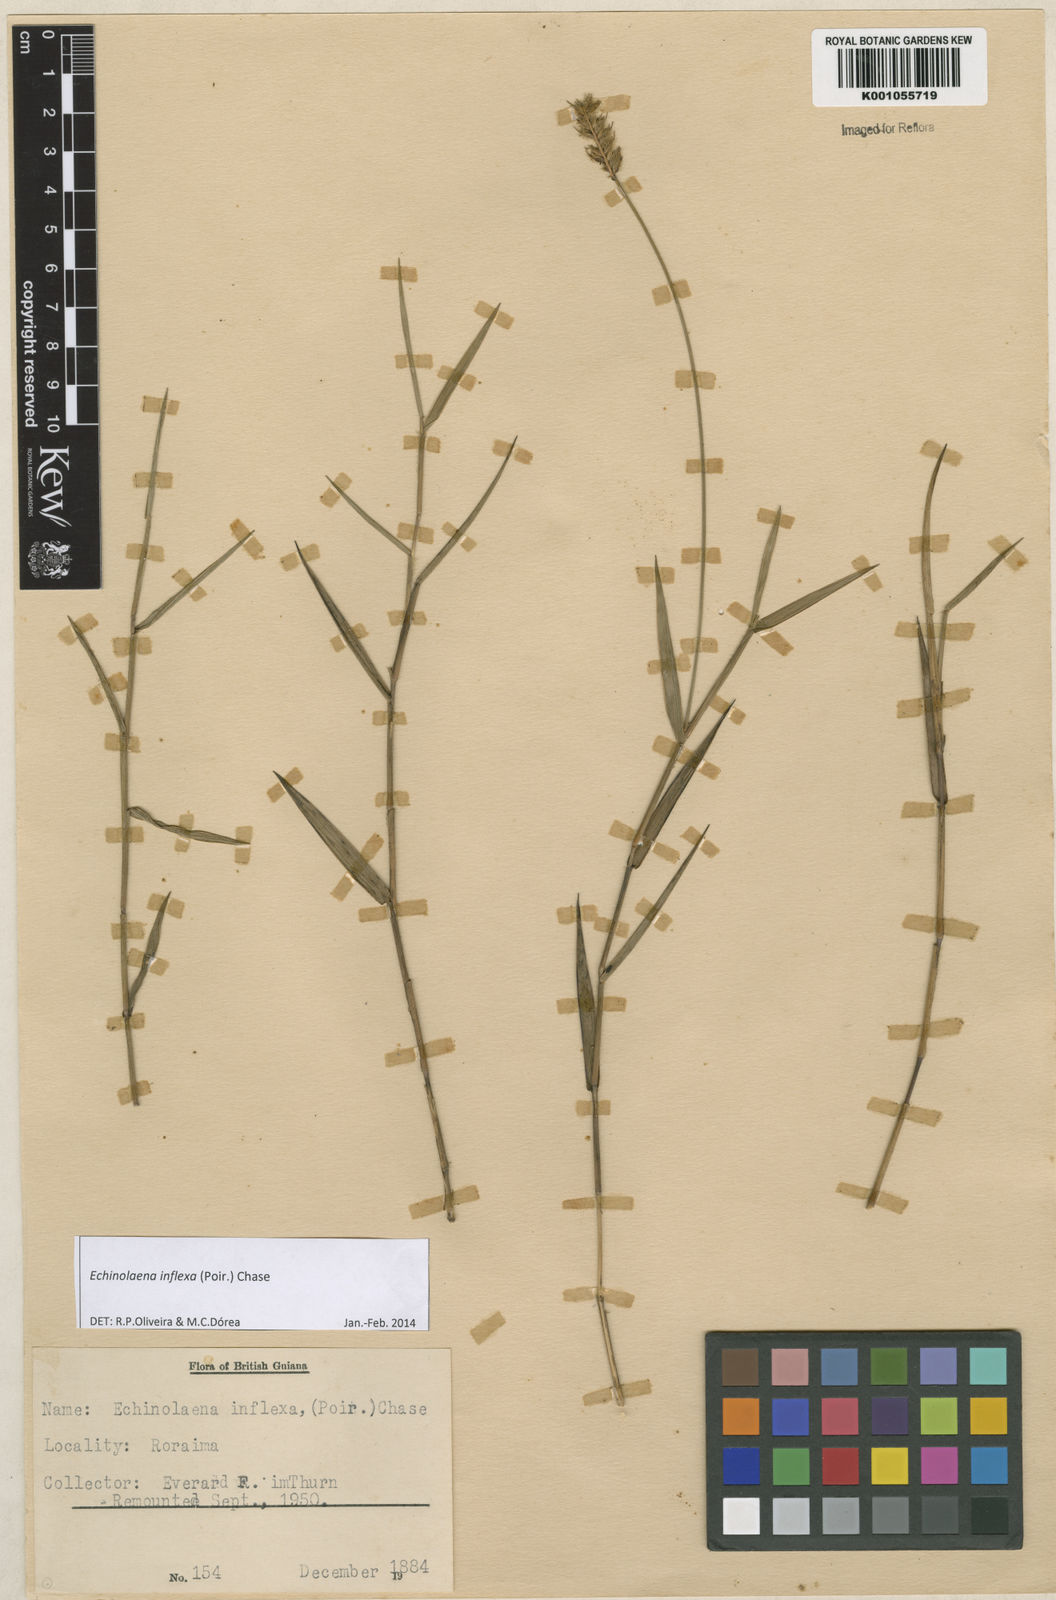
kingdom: Plantae
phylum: Tracheophyta
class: Liliopsida
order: Poales
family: Poaceae
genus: Echinolaena
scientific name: Echinolaena inflexa
